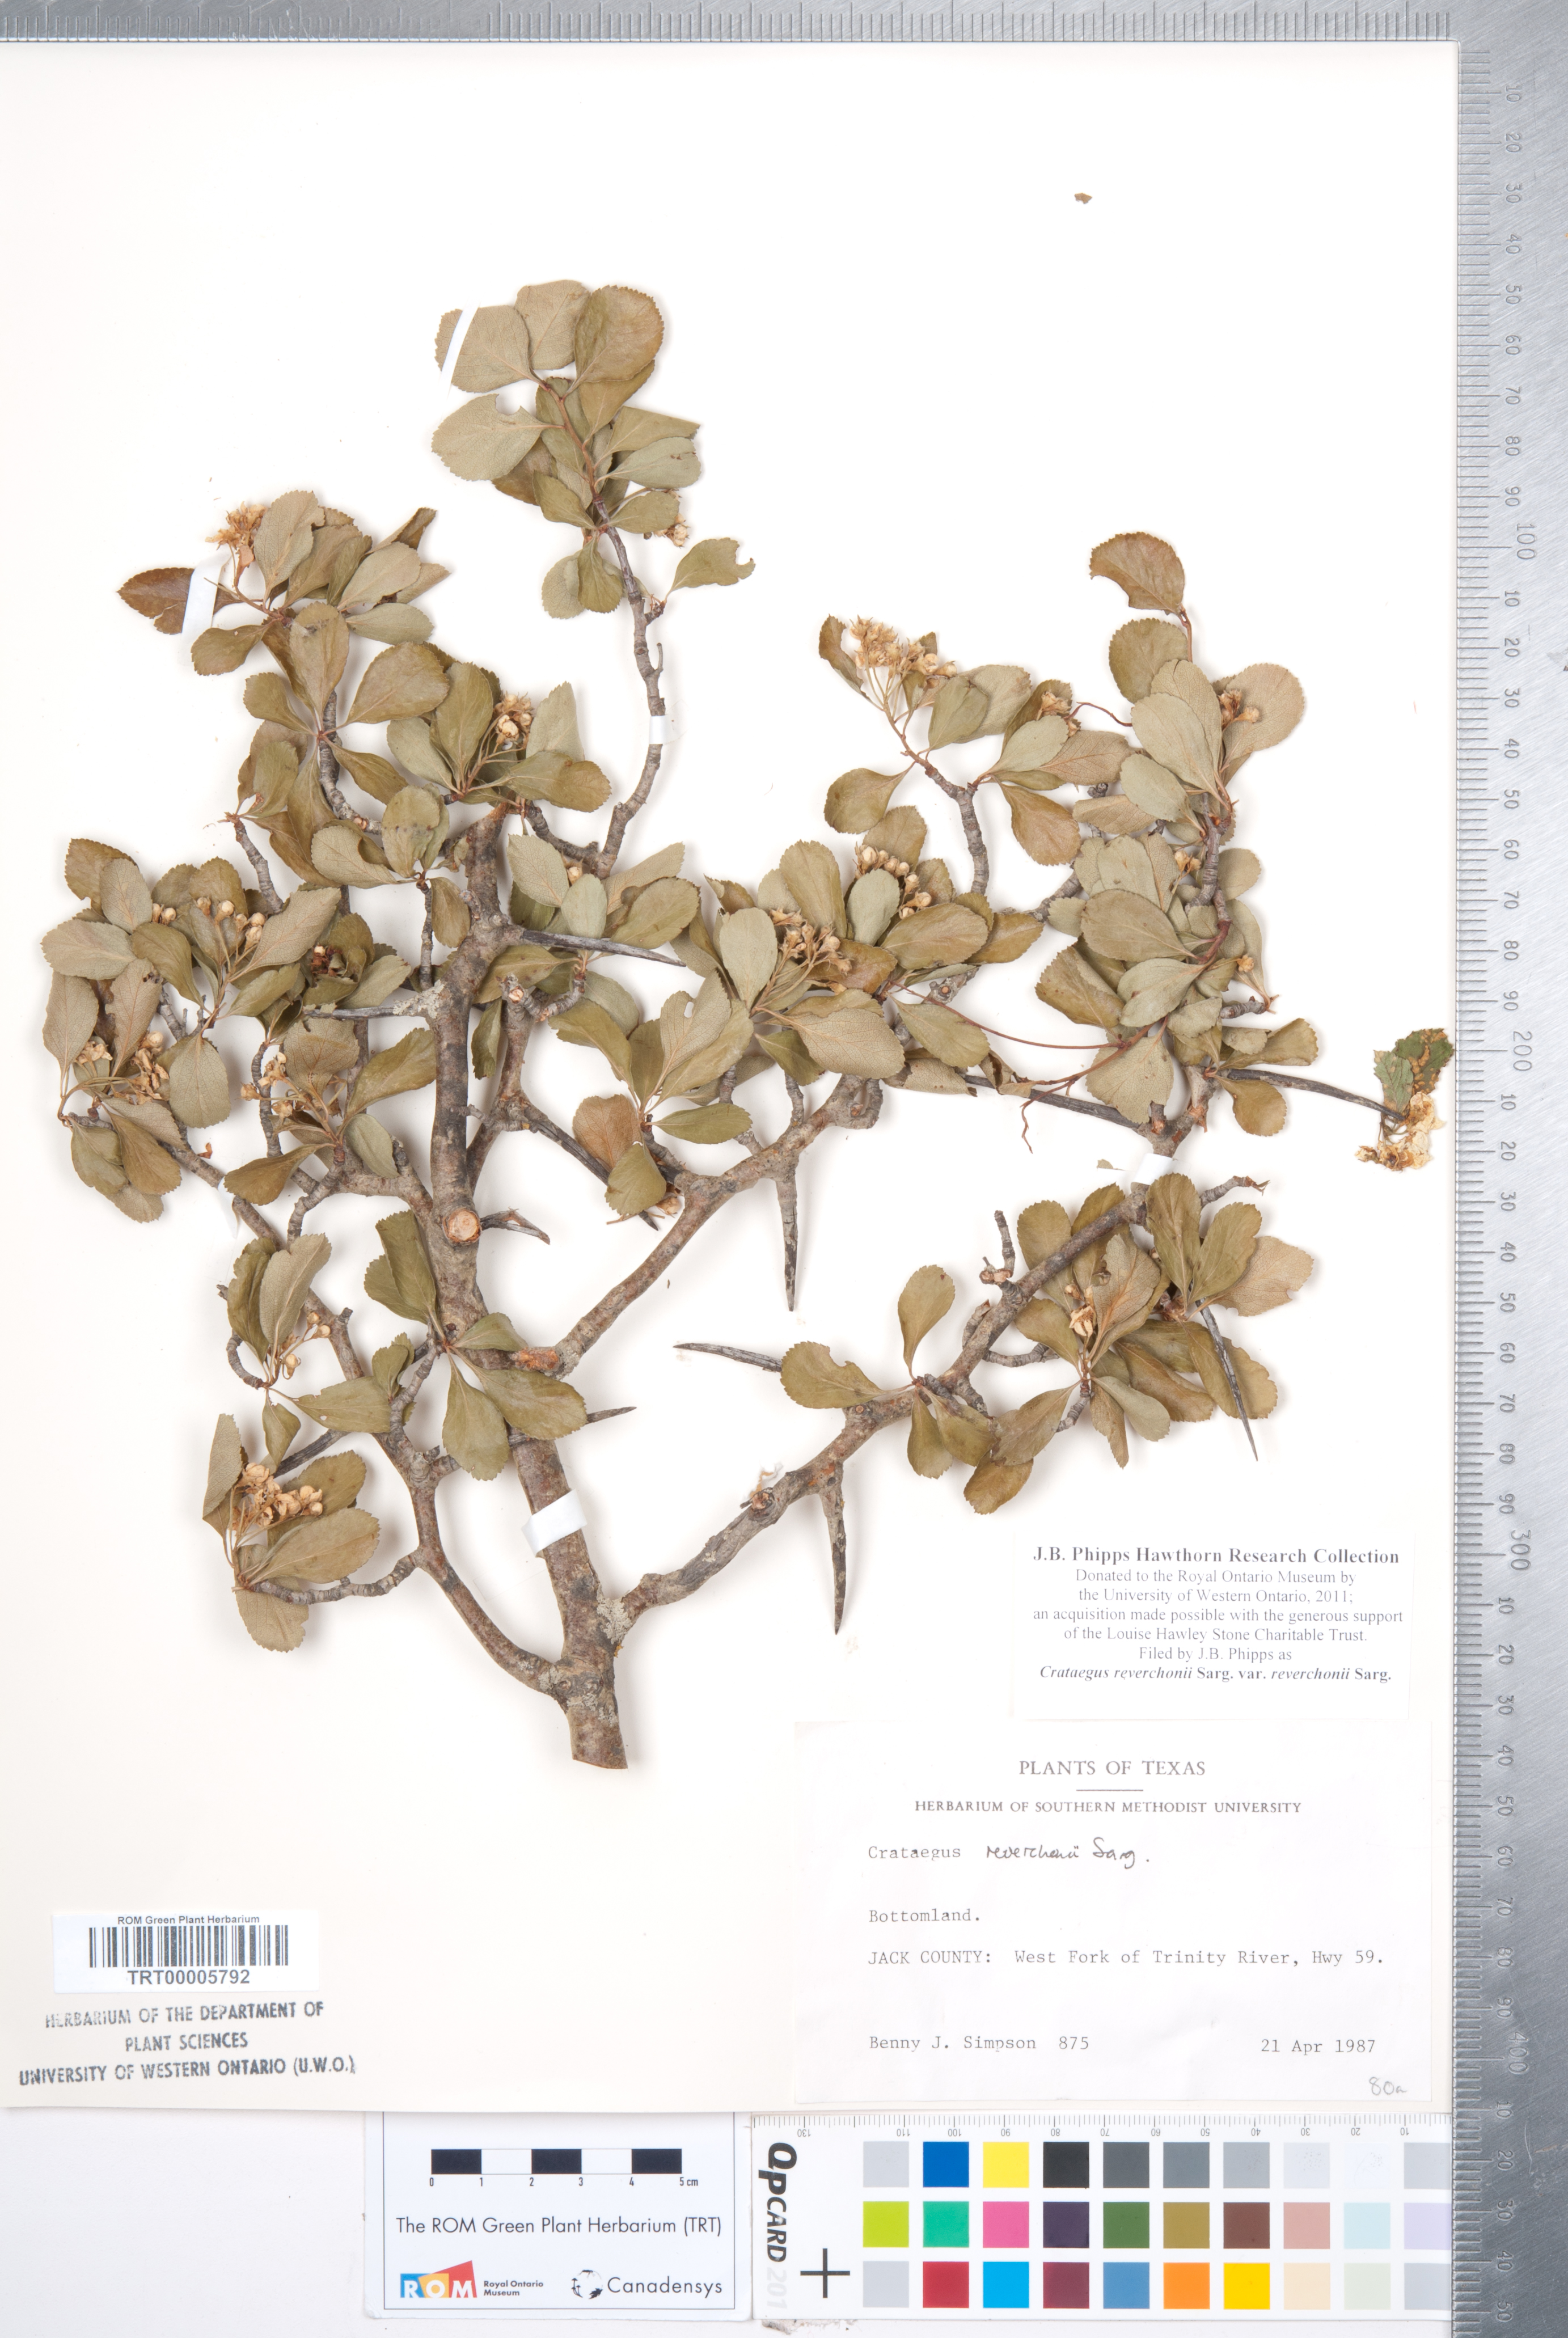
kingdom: Plantae
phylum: Tracheophyta
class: Magnoliopsida
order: Rosales
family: Rosaceae
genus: Crataegus
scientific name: Crataegus reverchonii
